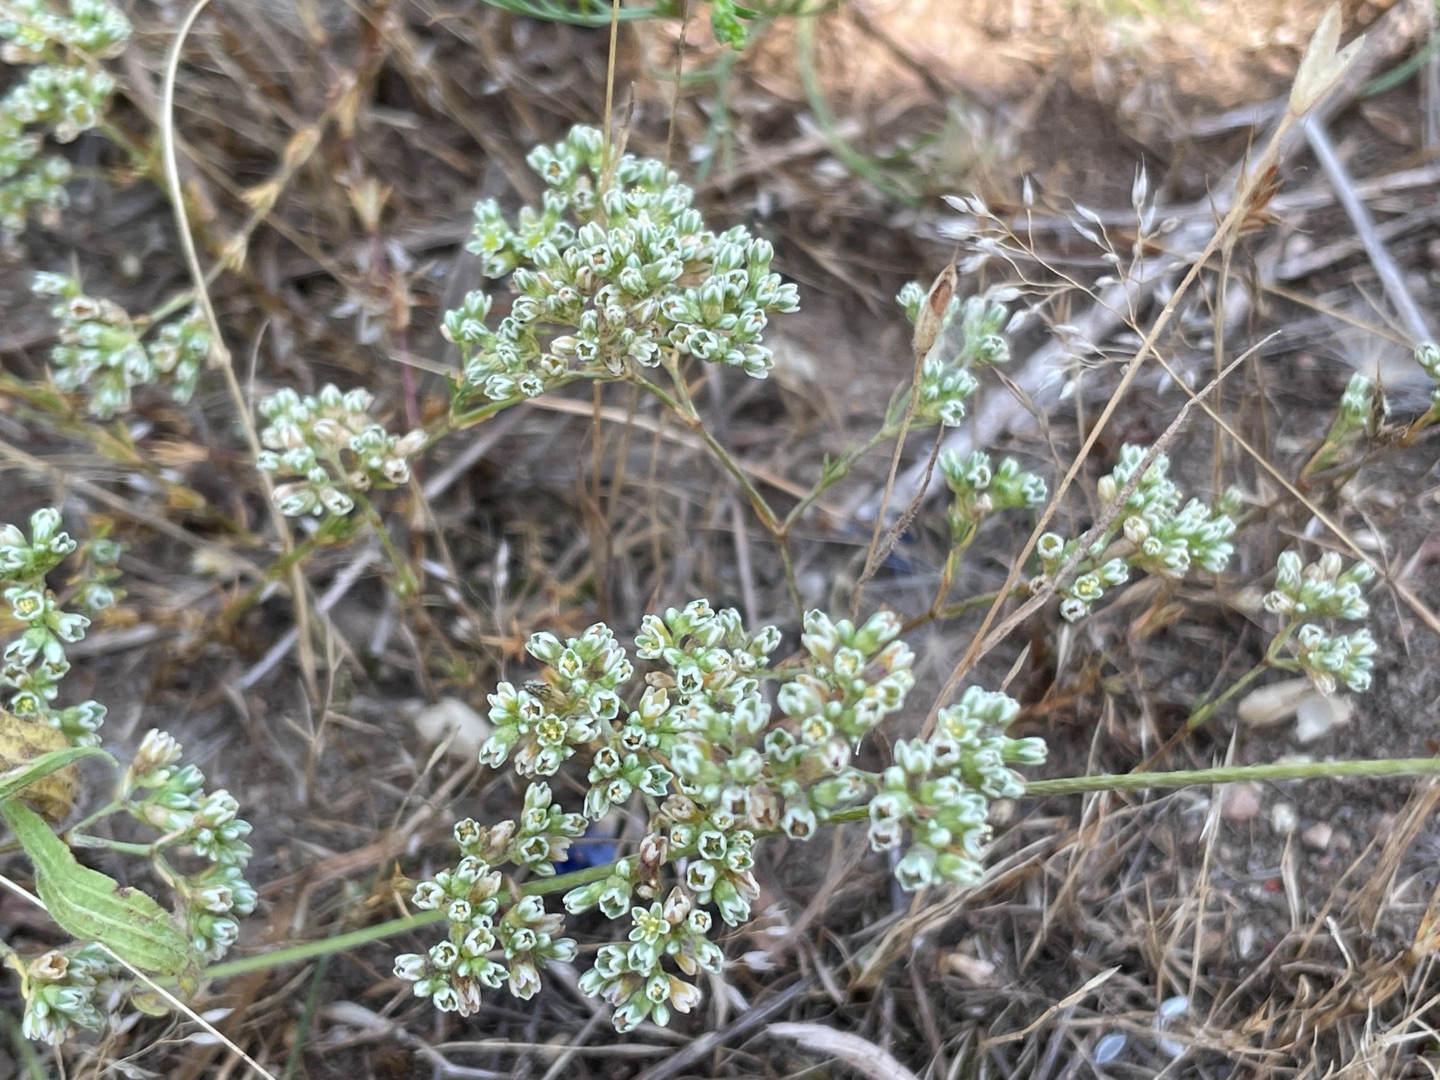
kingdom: Plantae
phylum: Tracheophyta
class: Magnoliopsida
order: Caryophyllales
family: Caryophyllaceae
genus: Scleranthus
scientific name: Scleranthus perennis
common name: Flerårig knavel
